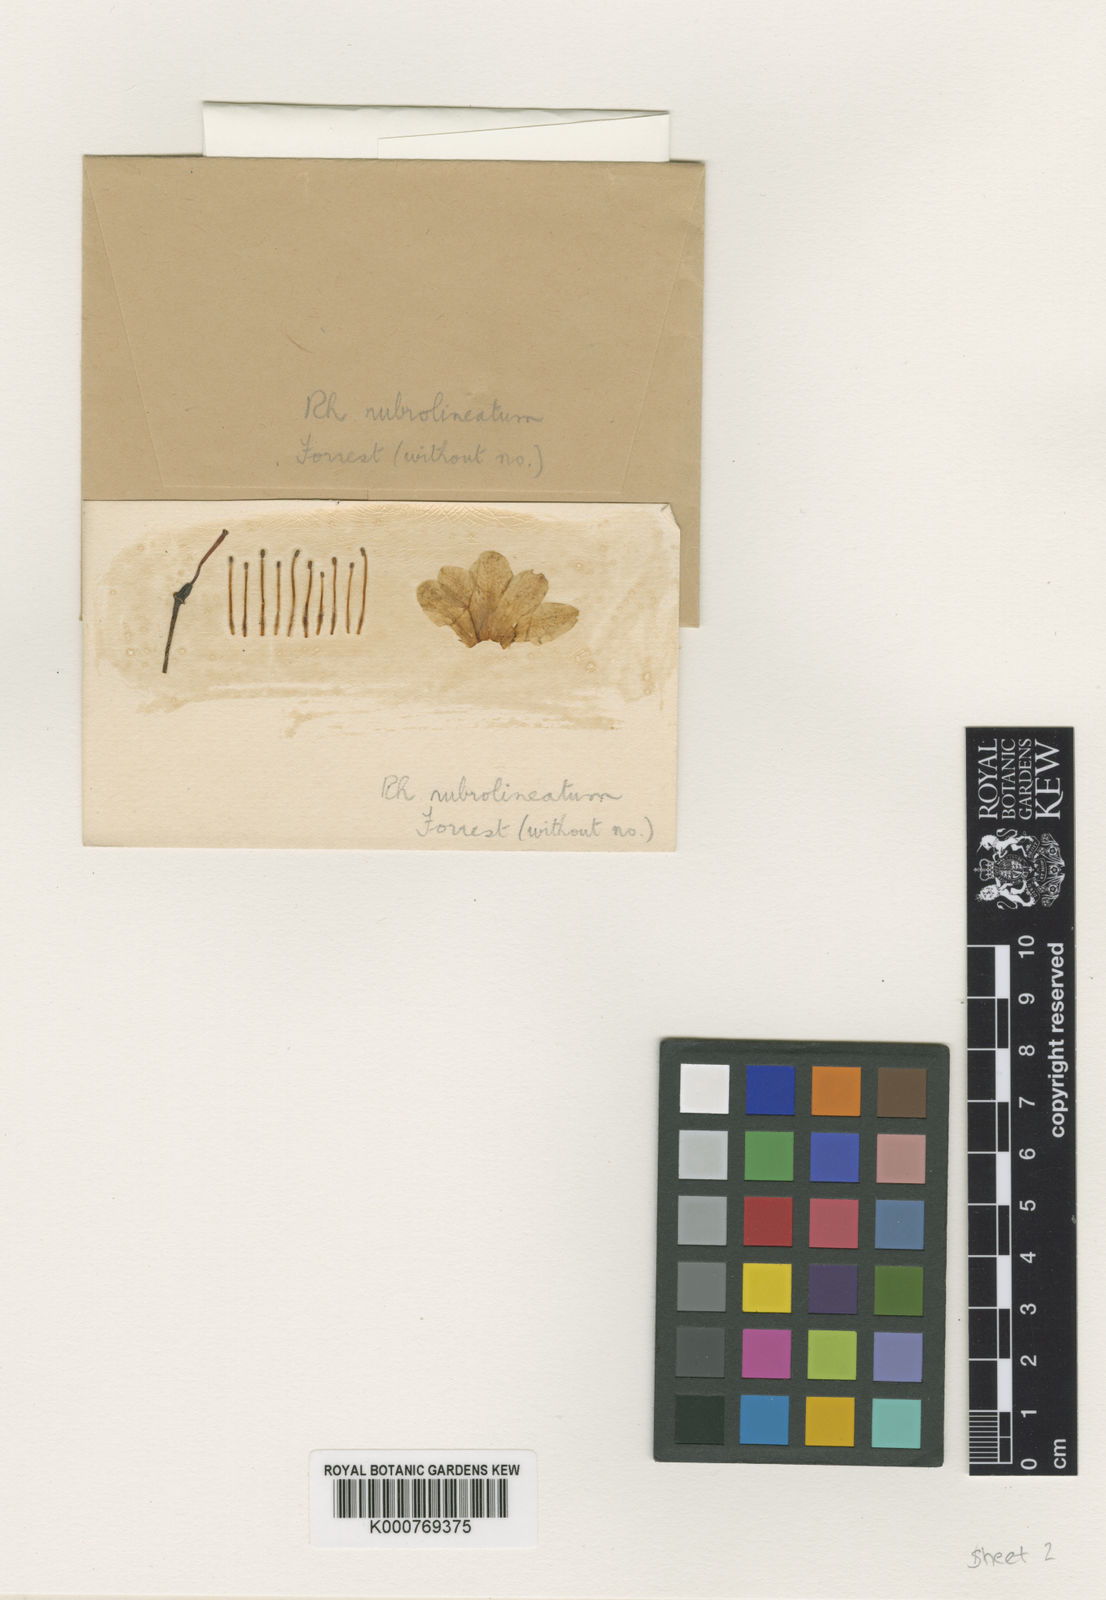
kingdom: Plantae
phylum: Tracheophyta
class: Magnoliopsida
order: Ericales
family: Ericaceae
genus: Rhododendron
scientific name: Rhododendron mekongense
